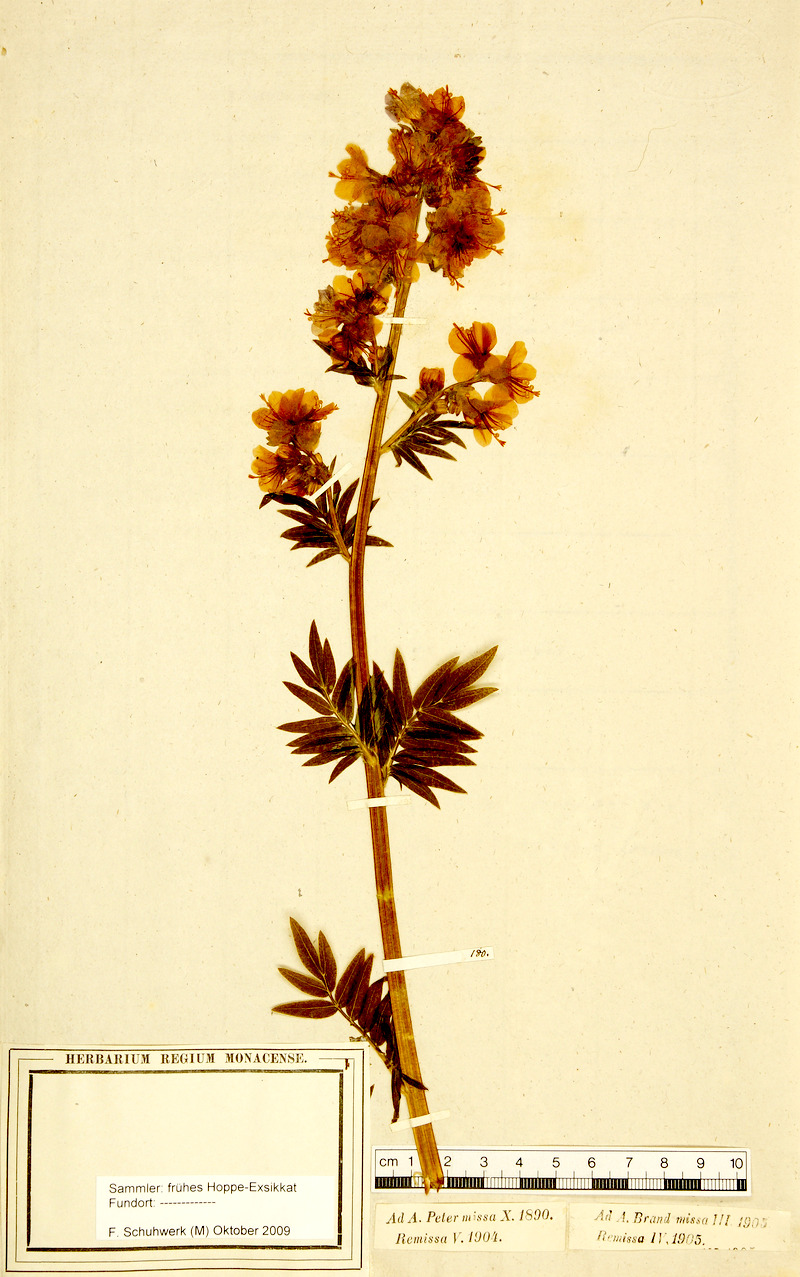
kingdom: Plantae
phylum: Tracheophyta
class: Magnoliopsida
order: Ericales
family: Polemoniaceae
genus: Polemonium
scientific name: Polemonium caeruleum
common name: Jacob's-ladder
